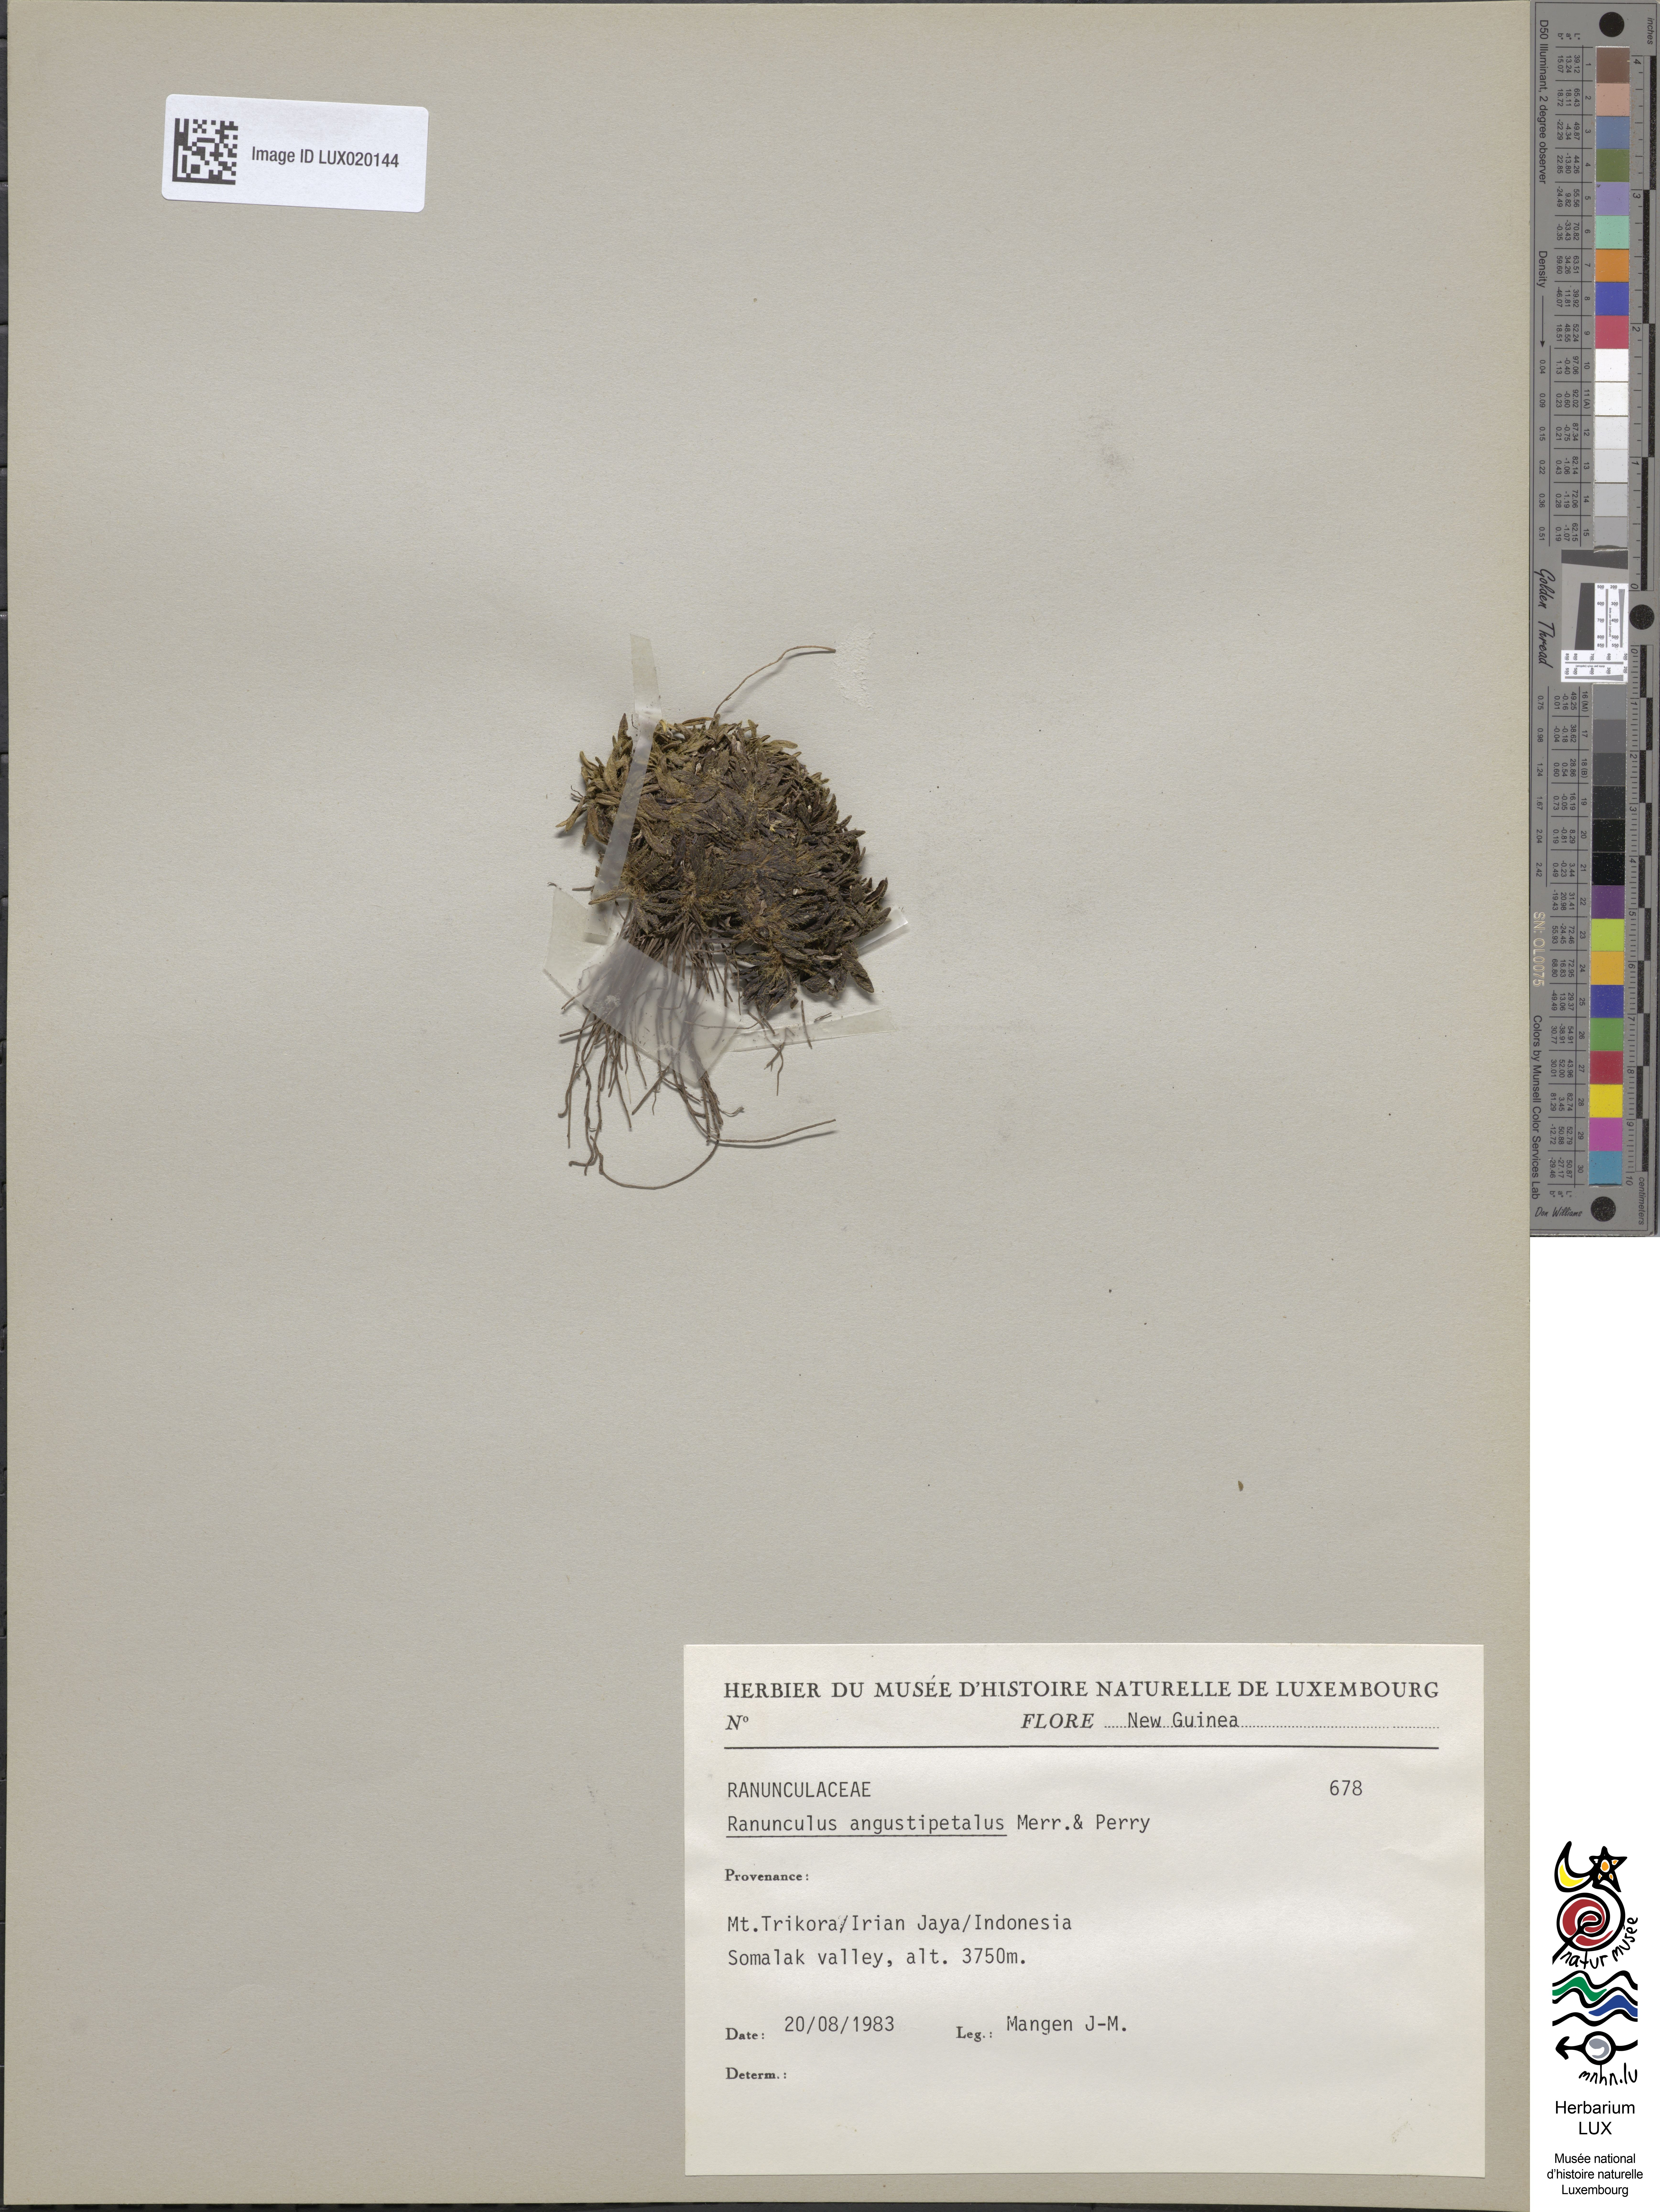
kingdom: Plantae
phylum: Tracheophyta
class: Magnoliopsida
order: Ranunculales
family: Ranunculaceae
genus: Ranunculus
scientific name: Ranunculus angustipetalus
